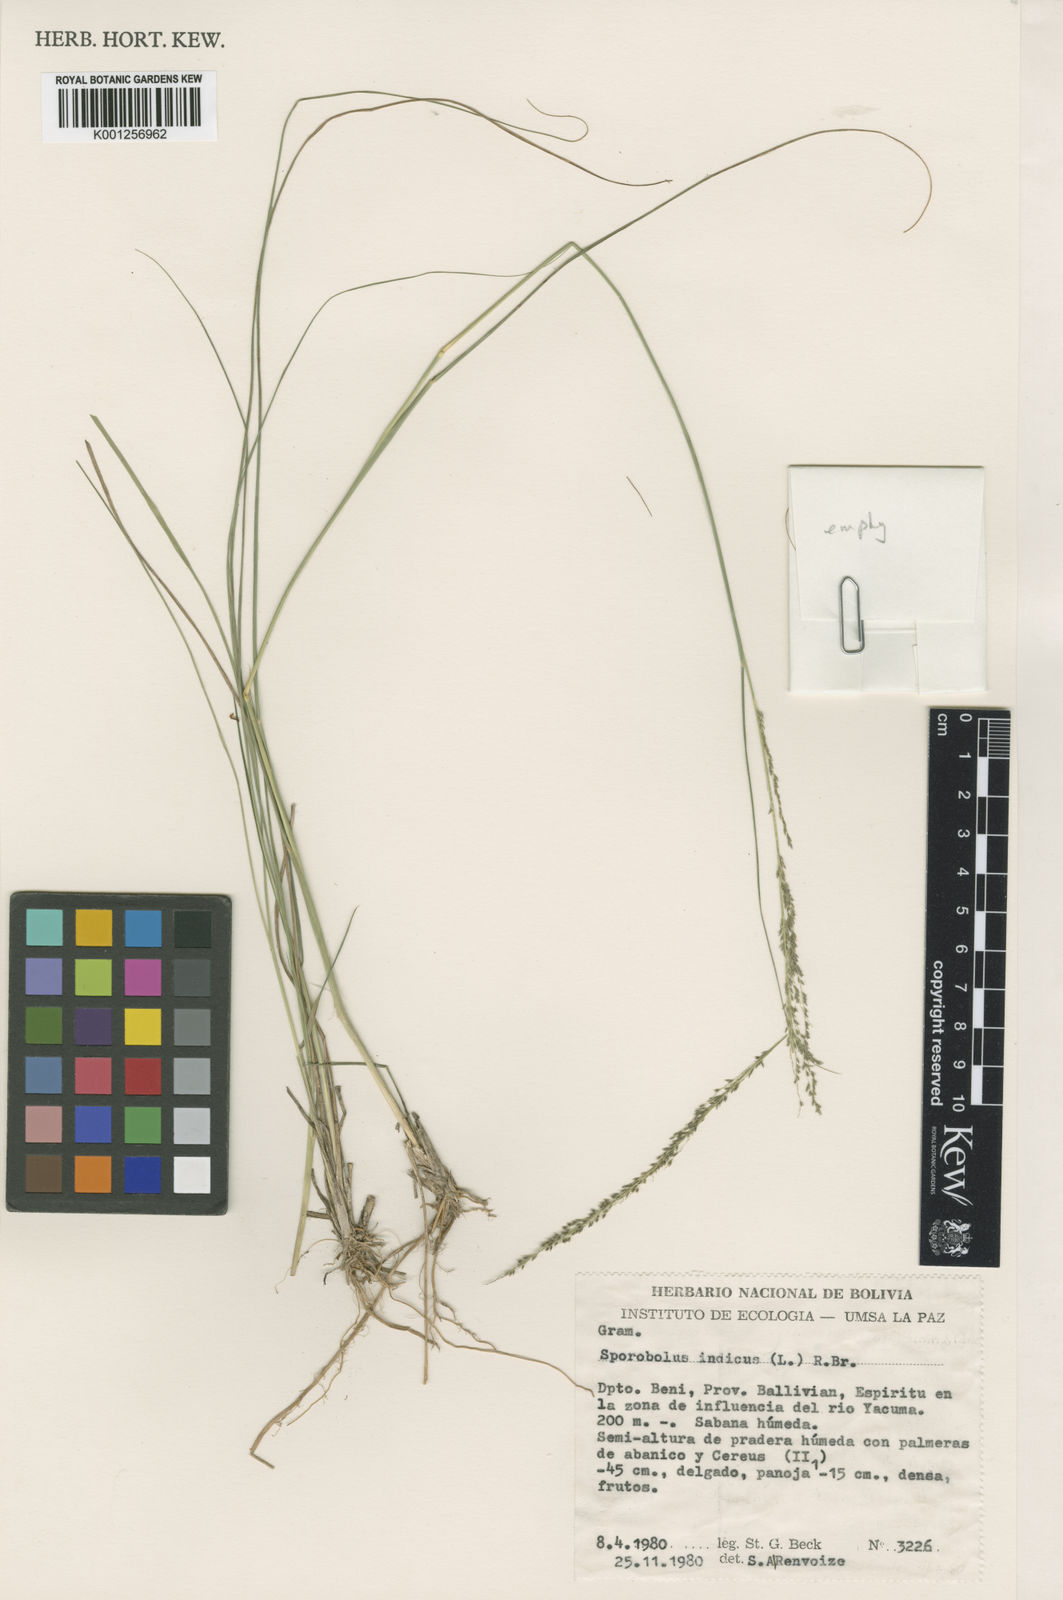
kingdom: Plantae
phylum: Tracheophyta
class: Liliopsida
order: Poales
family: Poaceae
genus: Sporobolus
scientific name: Sporobolus indicus
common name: Smut grass
